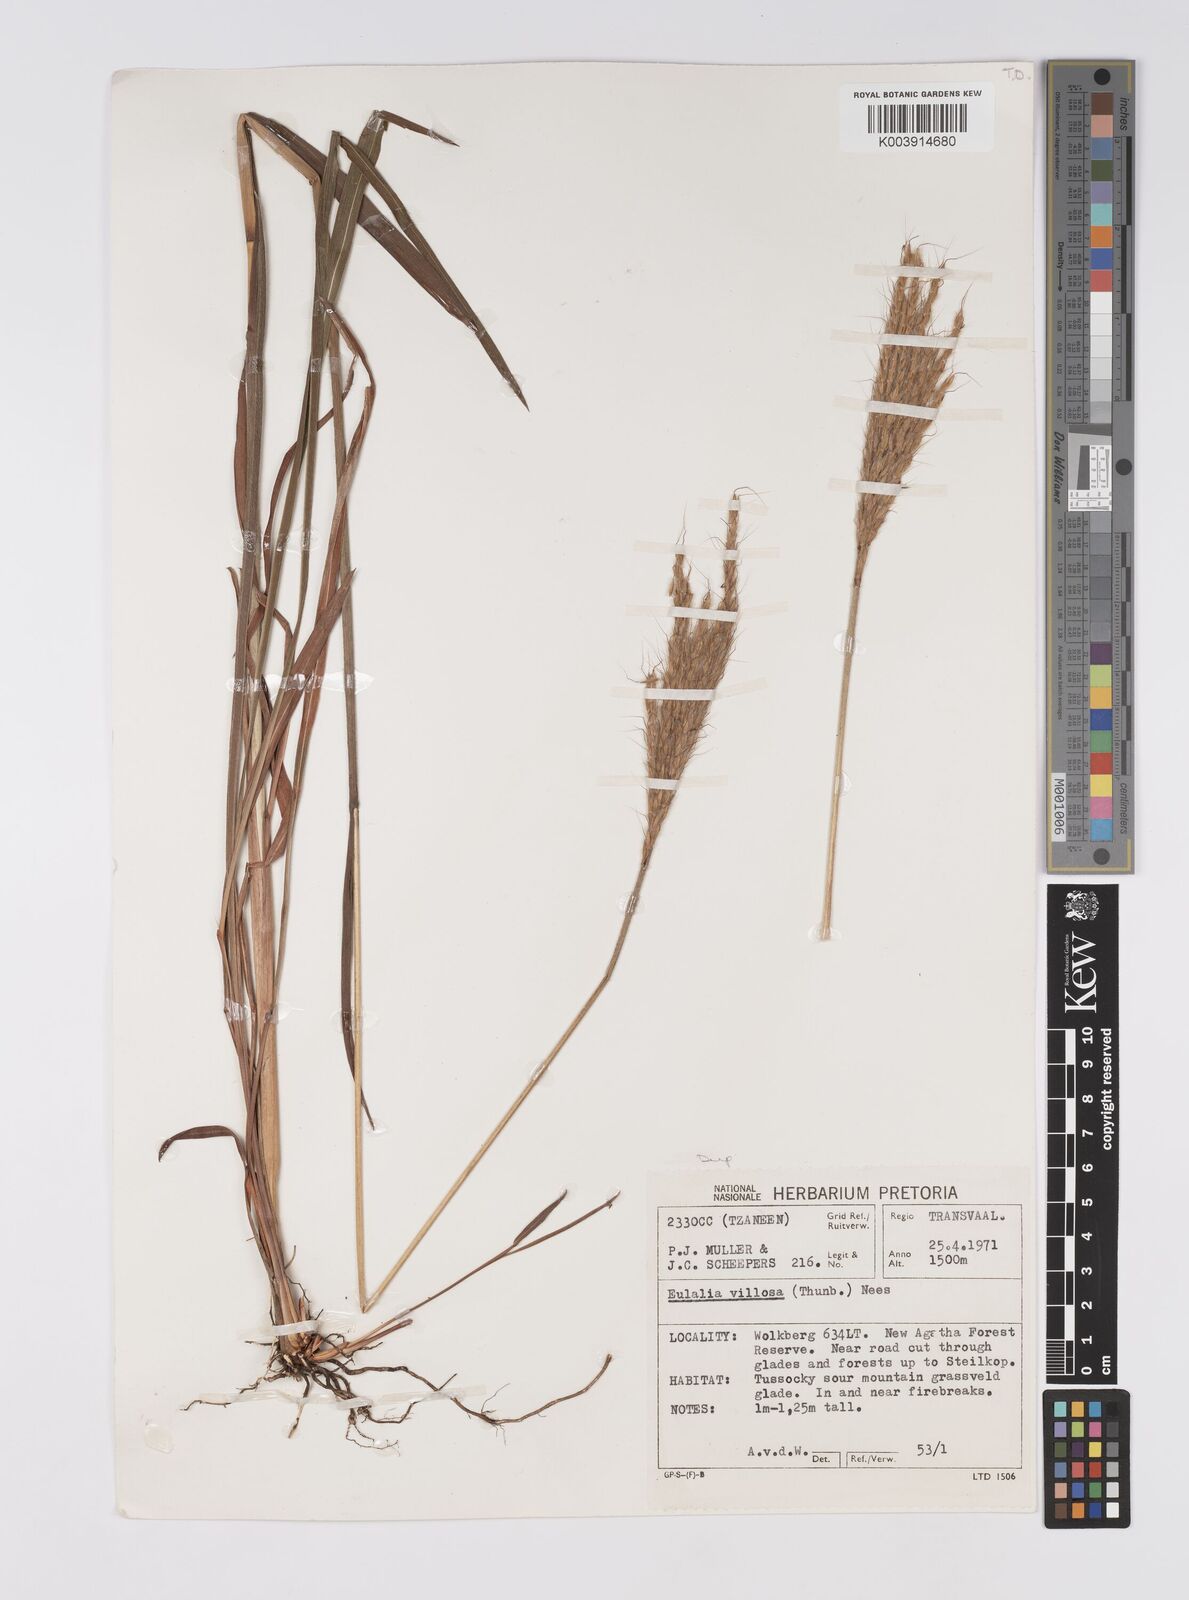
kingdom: Plantae
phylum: Tracheophyta
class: Liliopsida
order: Poales
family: Poaceae
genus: Eulalia
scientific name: Eulalia villosa
